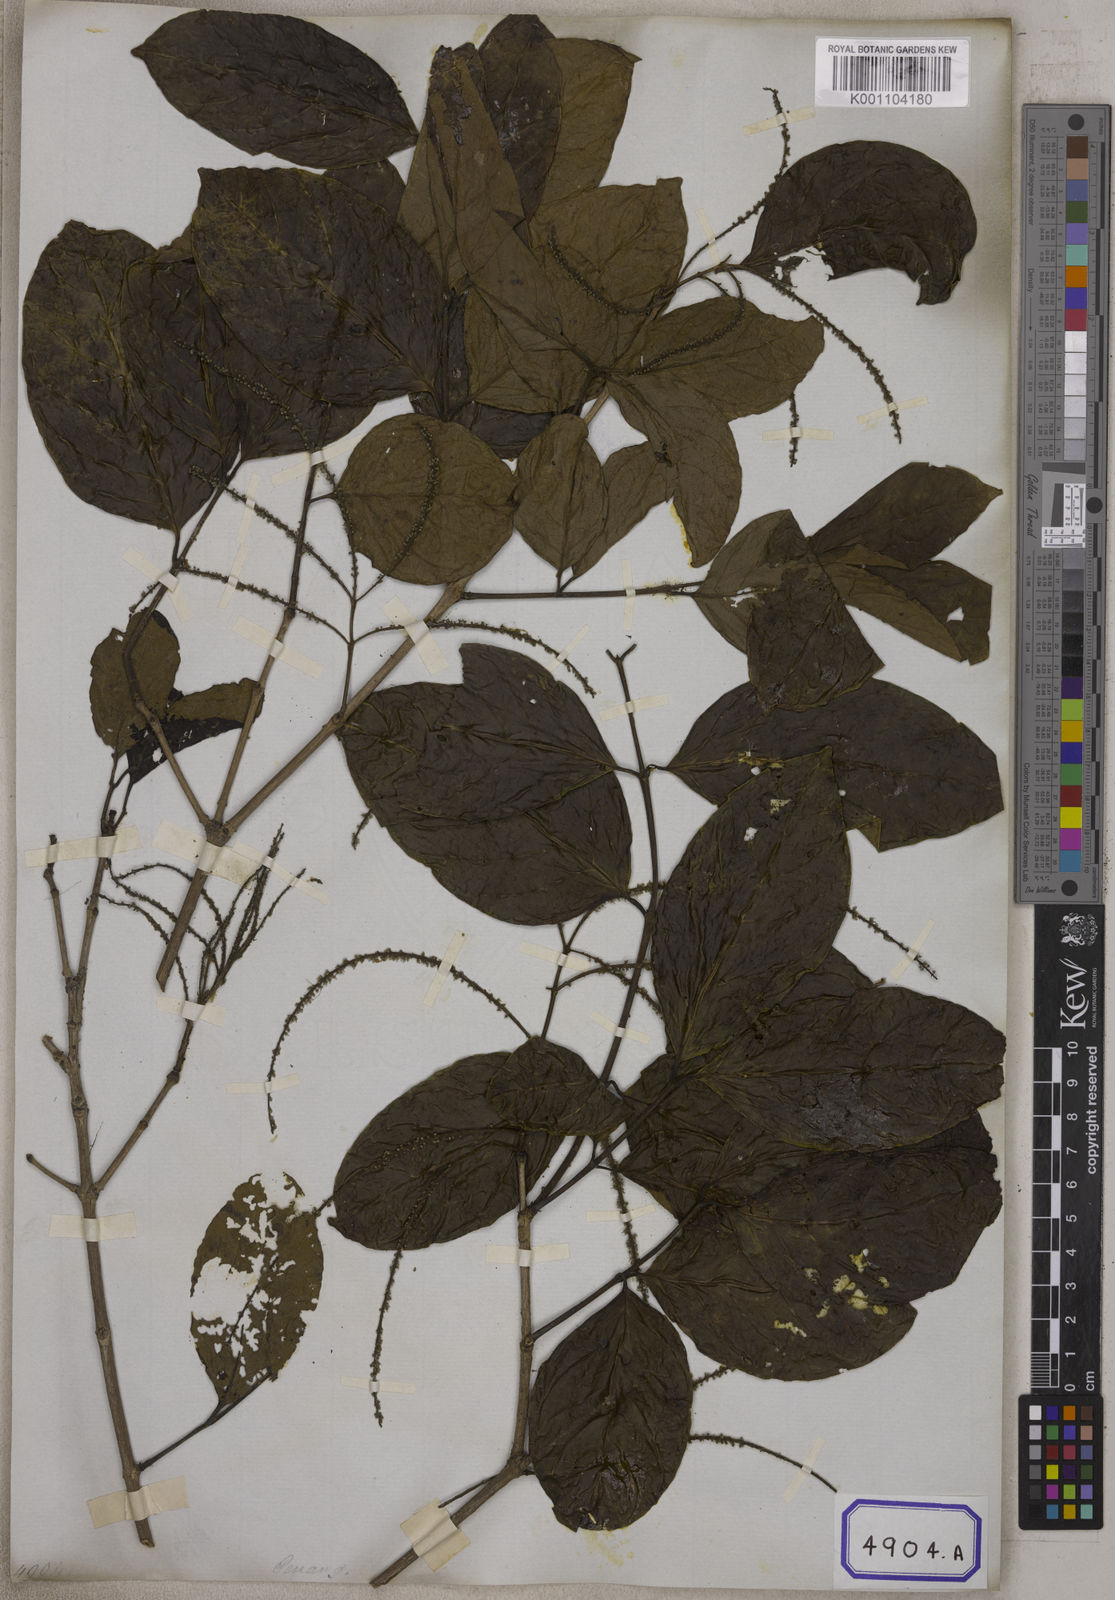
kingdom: Plantae
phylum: Tracheophyta
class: Magnoliopsida
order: Myrtales
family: Crypteroniaceae
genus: Crypteronia
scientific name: Crypteronia paniculata
